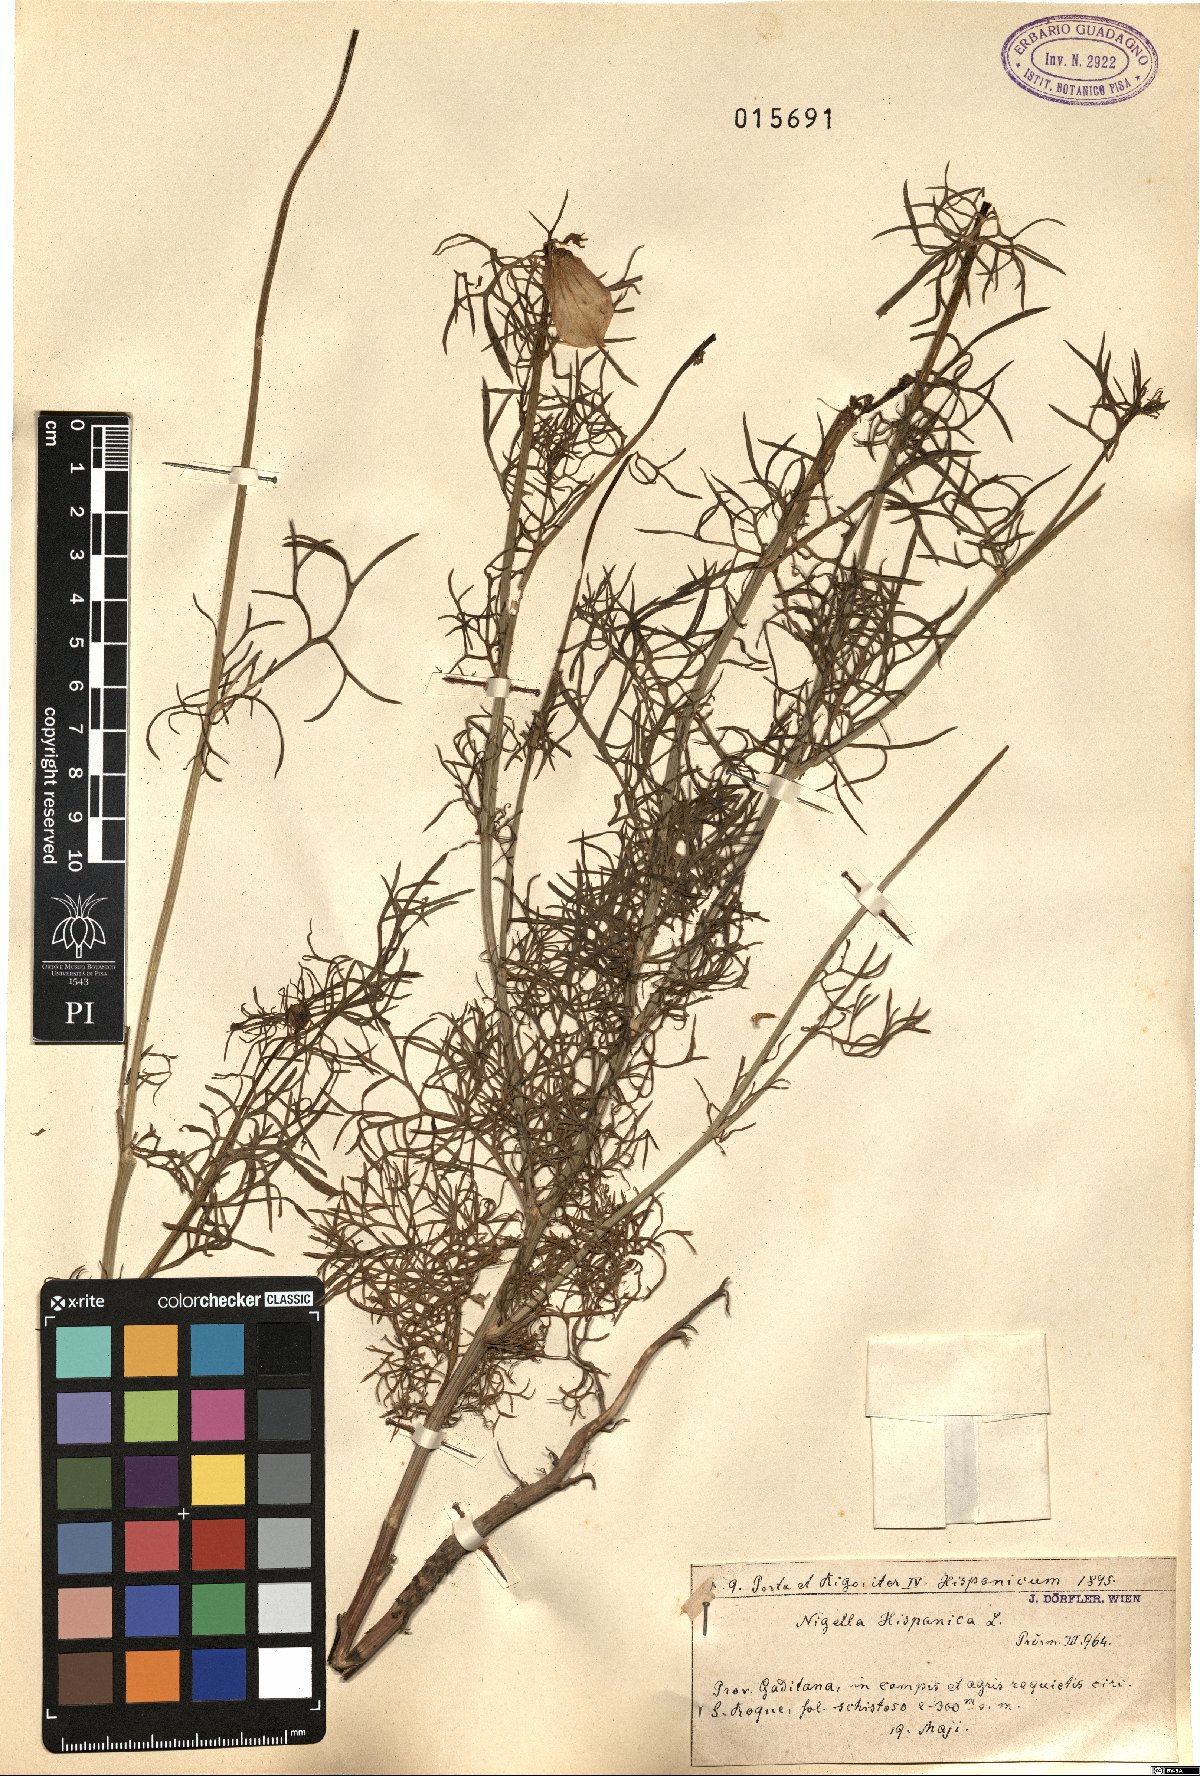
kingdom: Plantae
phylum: Tracheophyta
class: Magnoliopsida
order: Ranunculales
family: Ranunculaceae
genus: Nigella
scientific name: Nigella hispanica
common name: Fennel-flower
